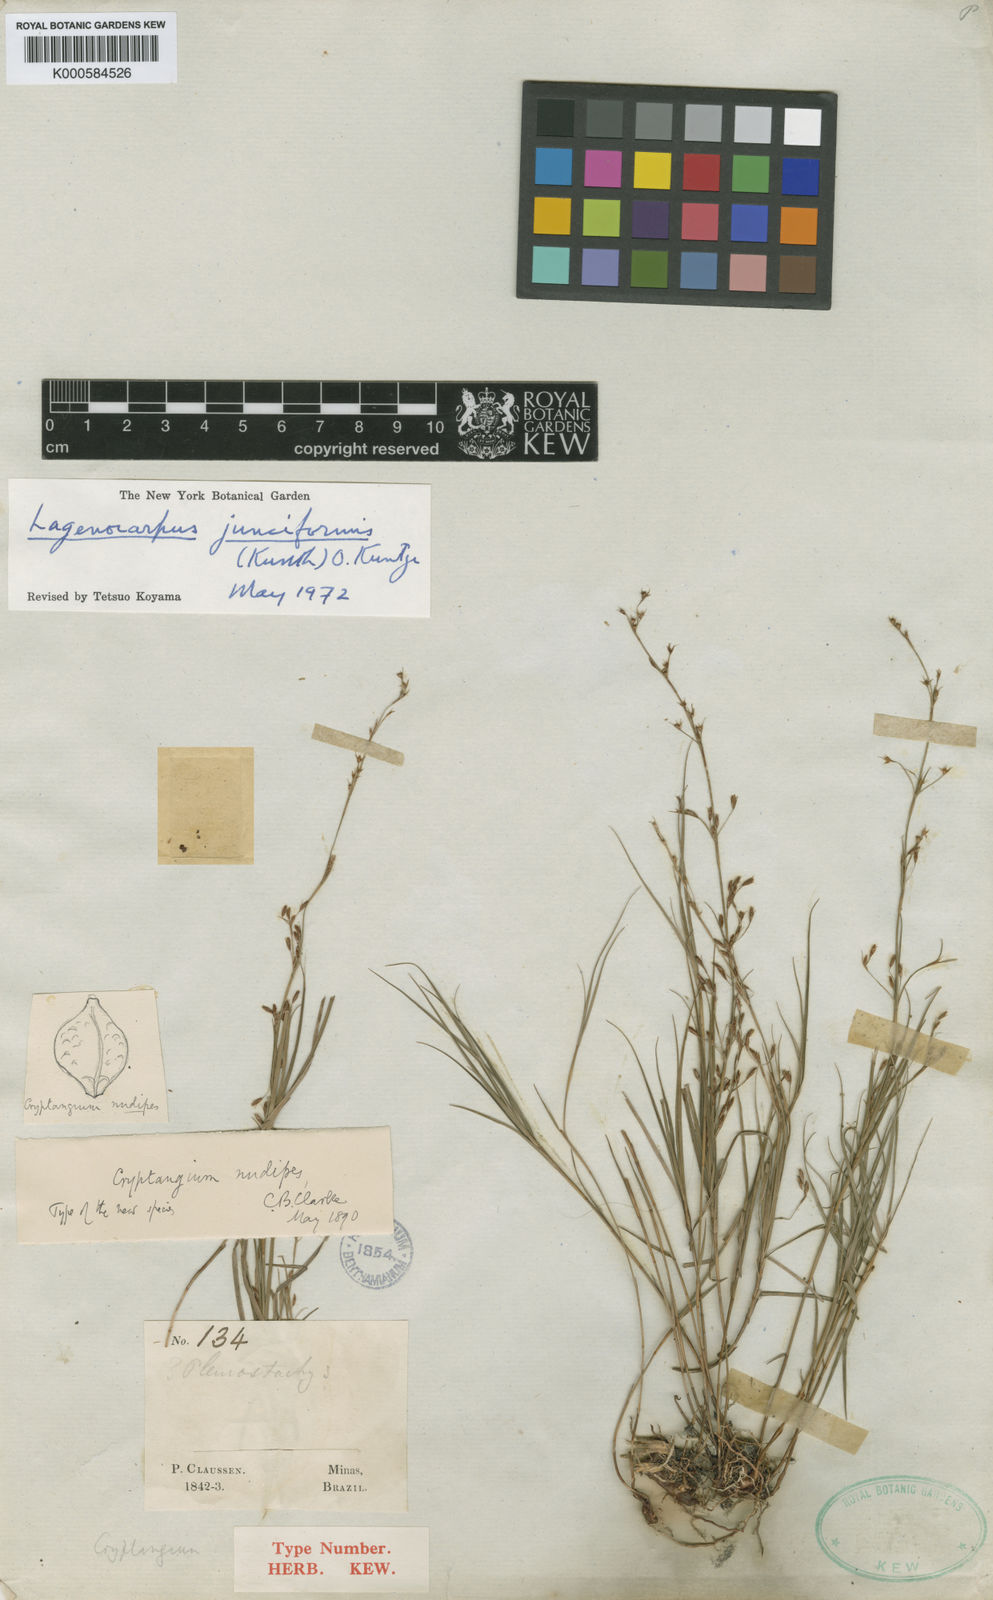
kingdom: Plantae
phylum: Tracheophyta
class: Liliopsida
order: Poales
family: Cyperaceae
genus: Krenakia
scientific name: Krenakia junciformis
